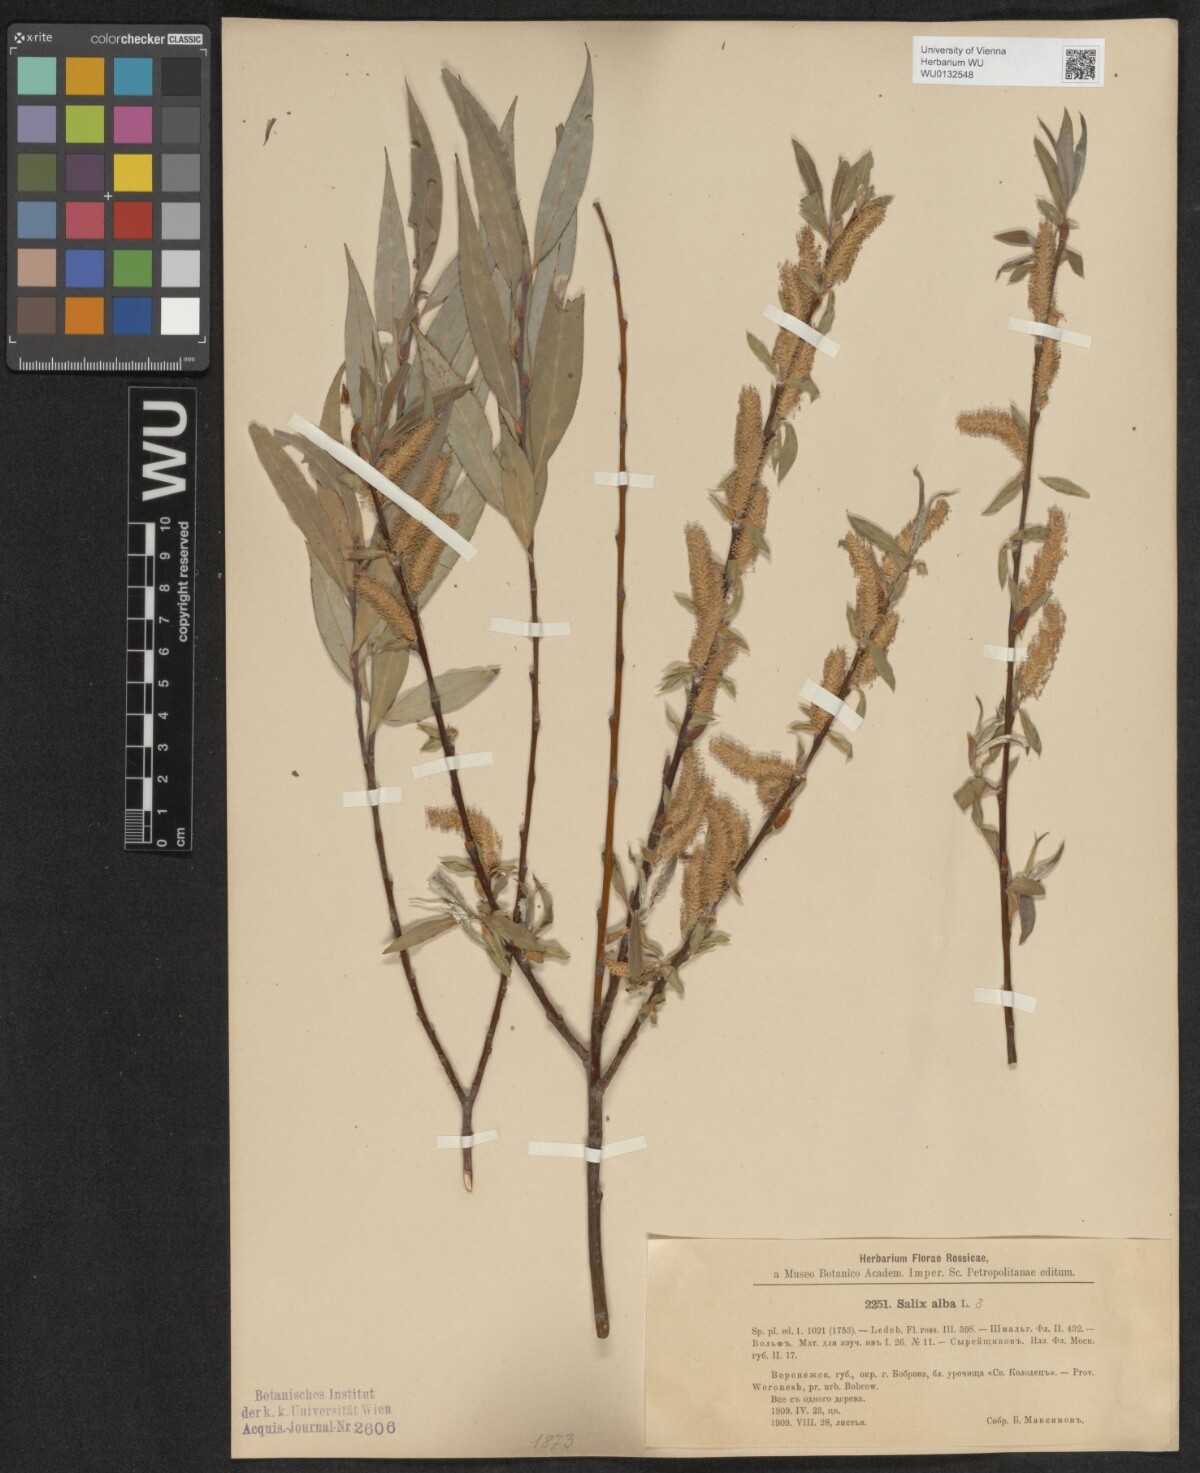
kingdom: Plantae
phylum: Tracheophyta
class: Magnoliopsida
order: Malpighiales
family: Salicaceae
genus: Salix
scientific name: Salix alba
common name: White willow
